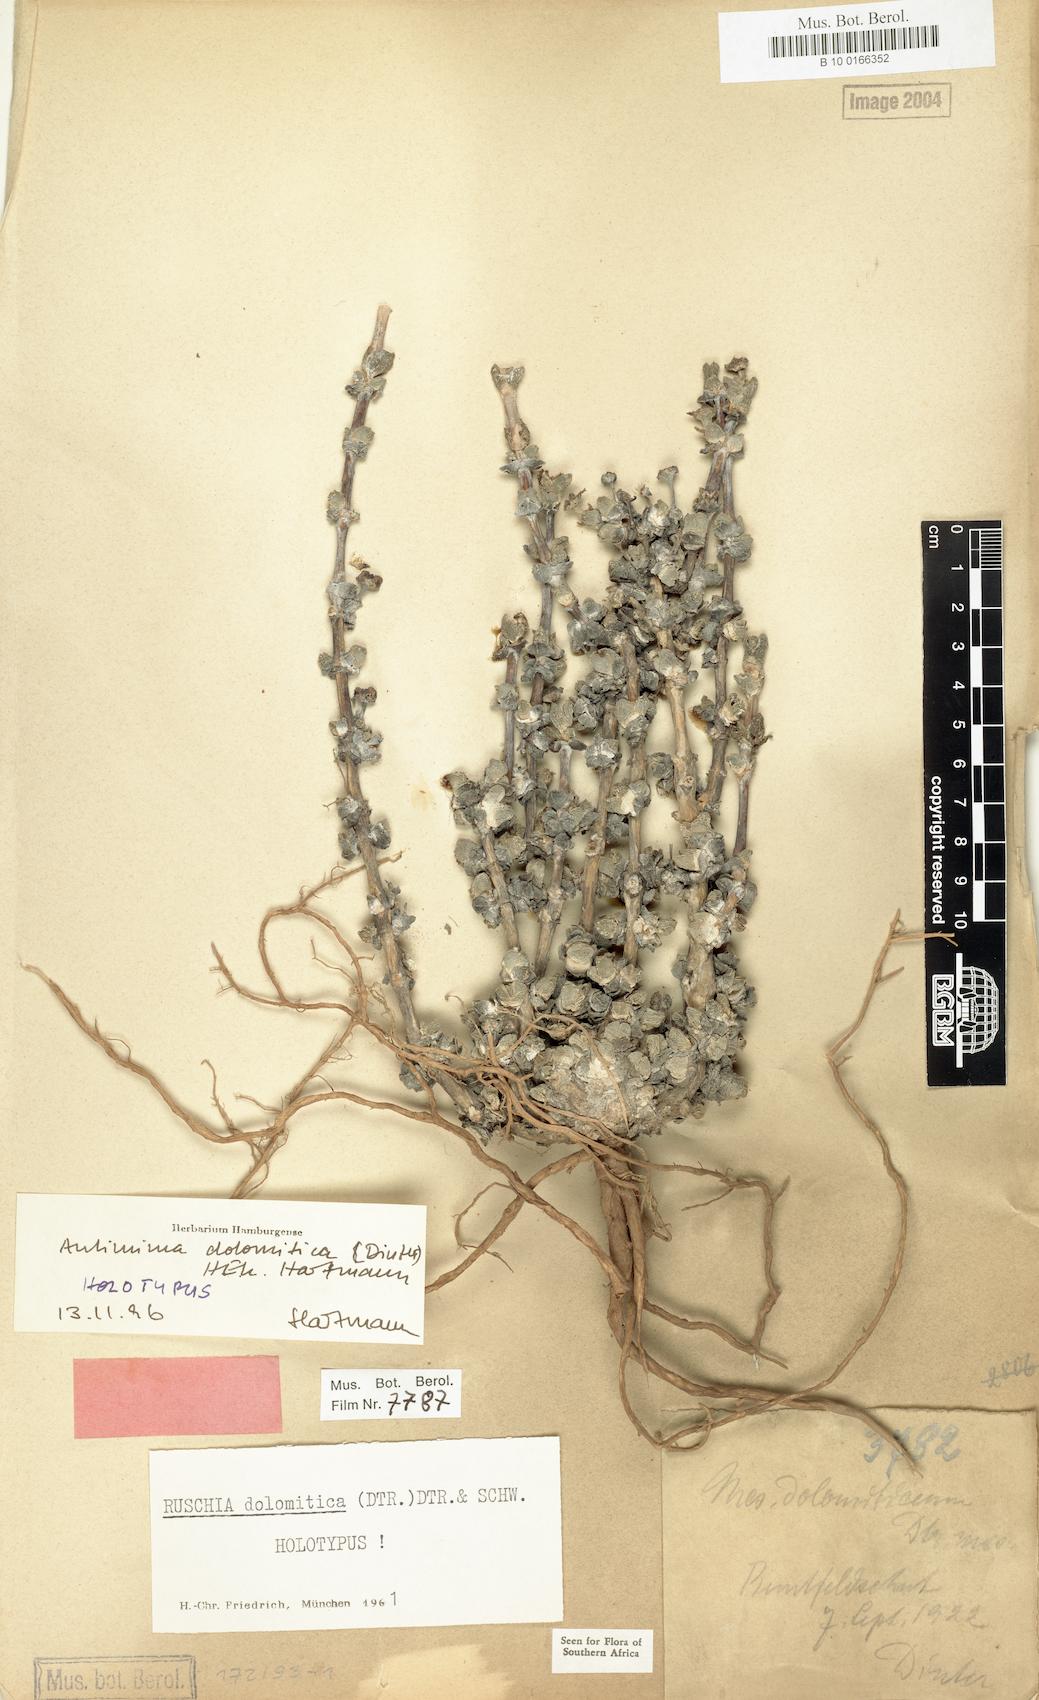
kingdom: Plantae
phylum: Tracheophyta
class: Magnoliopsida
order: Caryophyllales
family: Aizoaceae
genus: Antimima
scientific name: Antimima dolomitica
